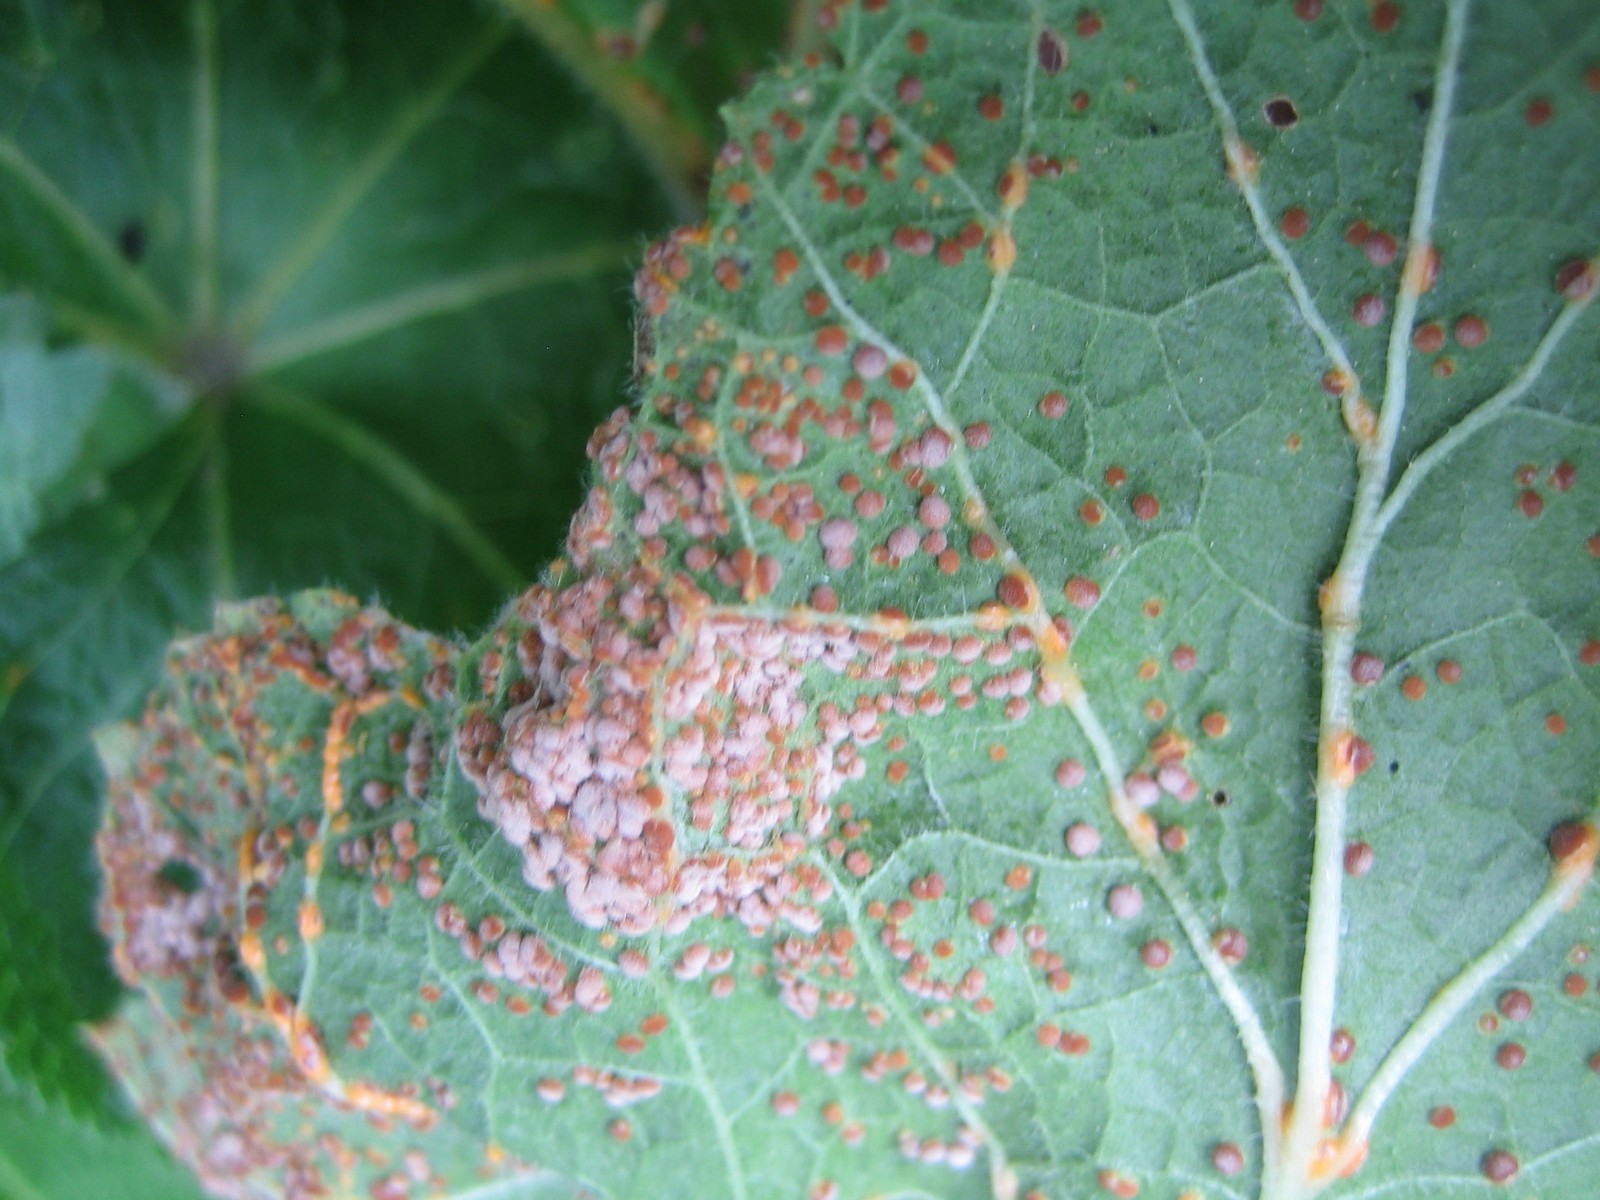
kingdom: Fungi
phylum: Basidiomycota
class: Pucciniomycetes
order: Pucciniales
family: Pucciniaceae
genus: Puccinia
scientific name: Puccinia malvacearum
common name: stokrose-tvecellerust
